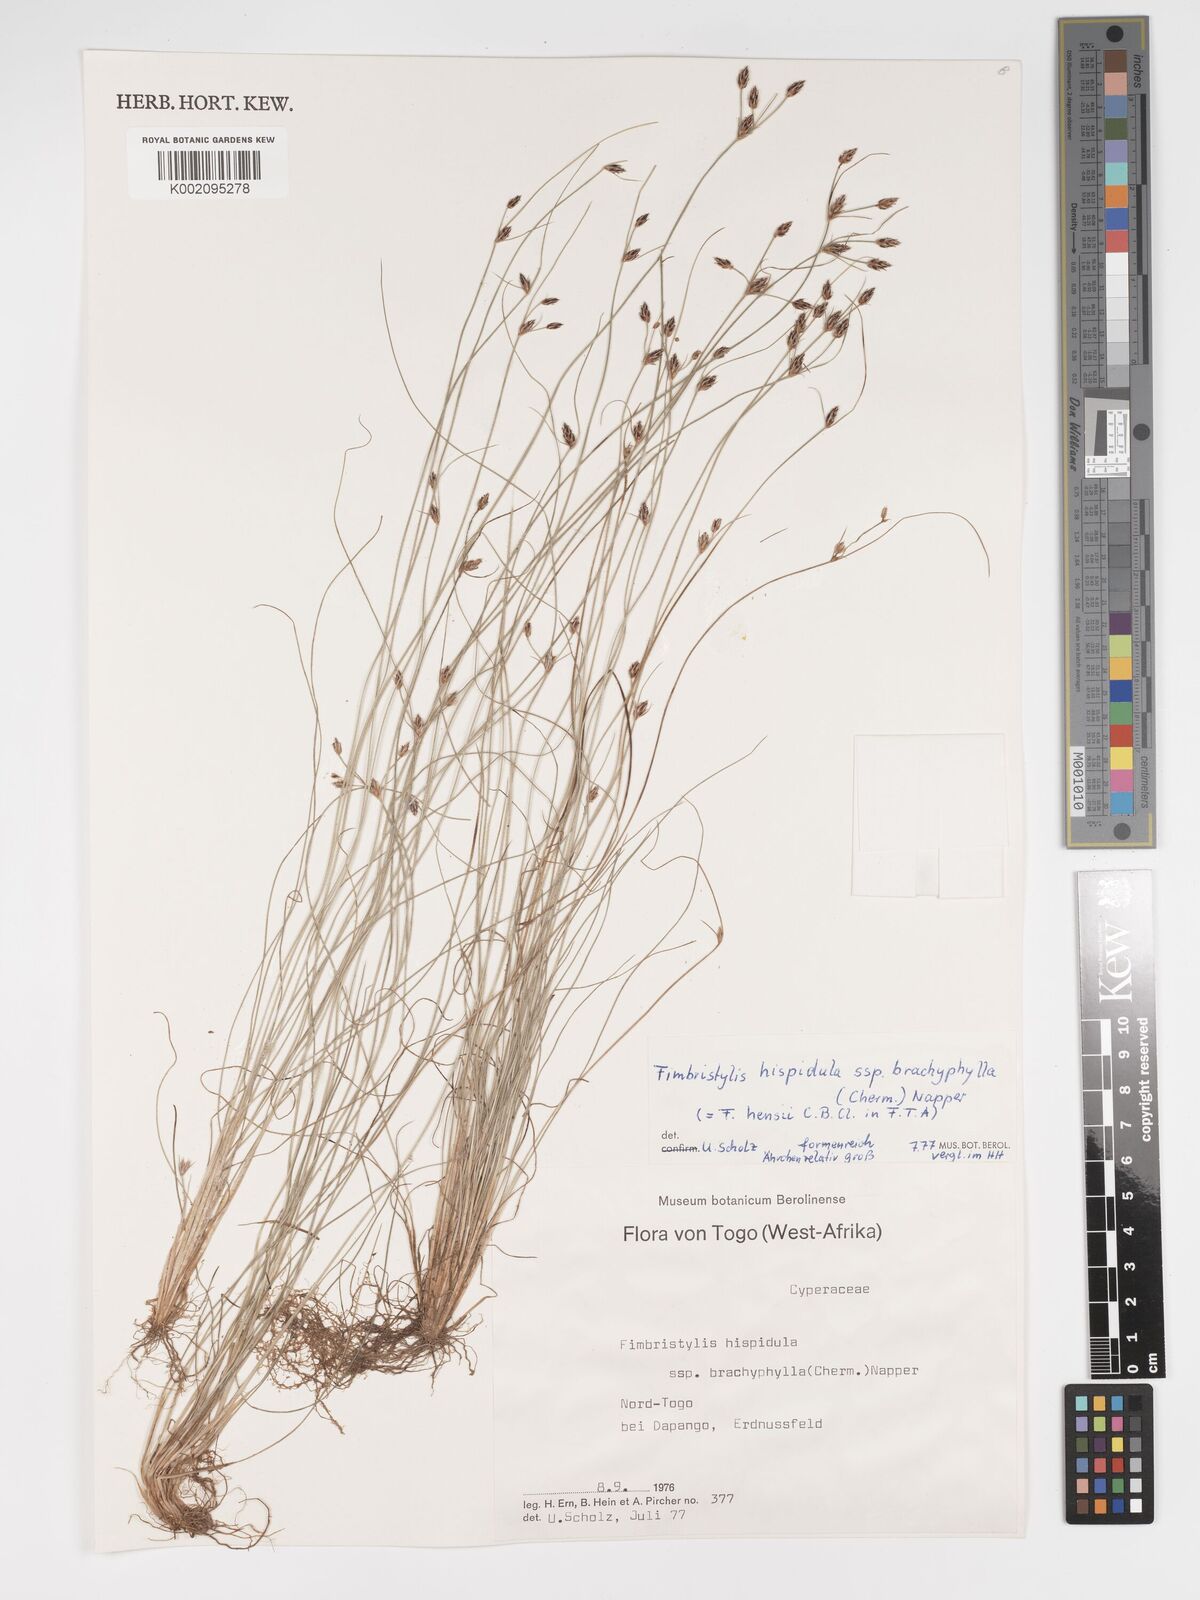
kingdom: Plantae
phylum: Tracheophyta
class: Liliopsida
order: Poales
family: Cyperaceae
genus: Bulbostylis
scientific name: Bulbostylis hispidula
